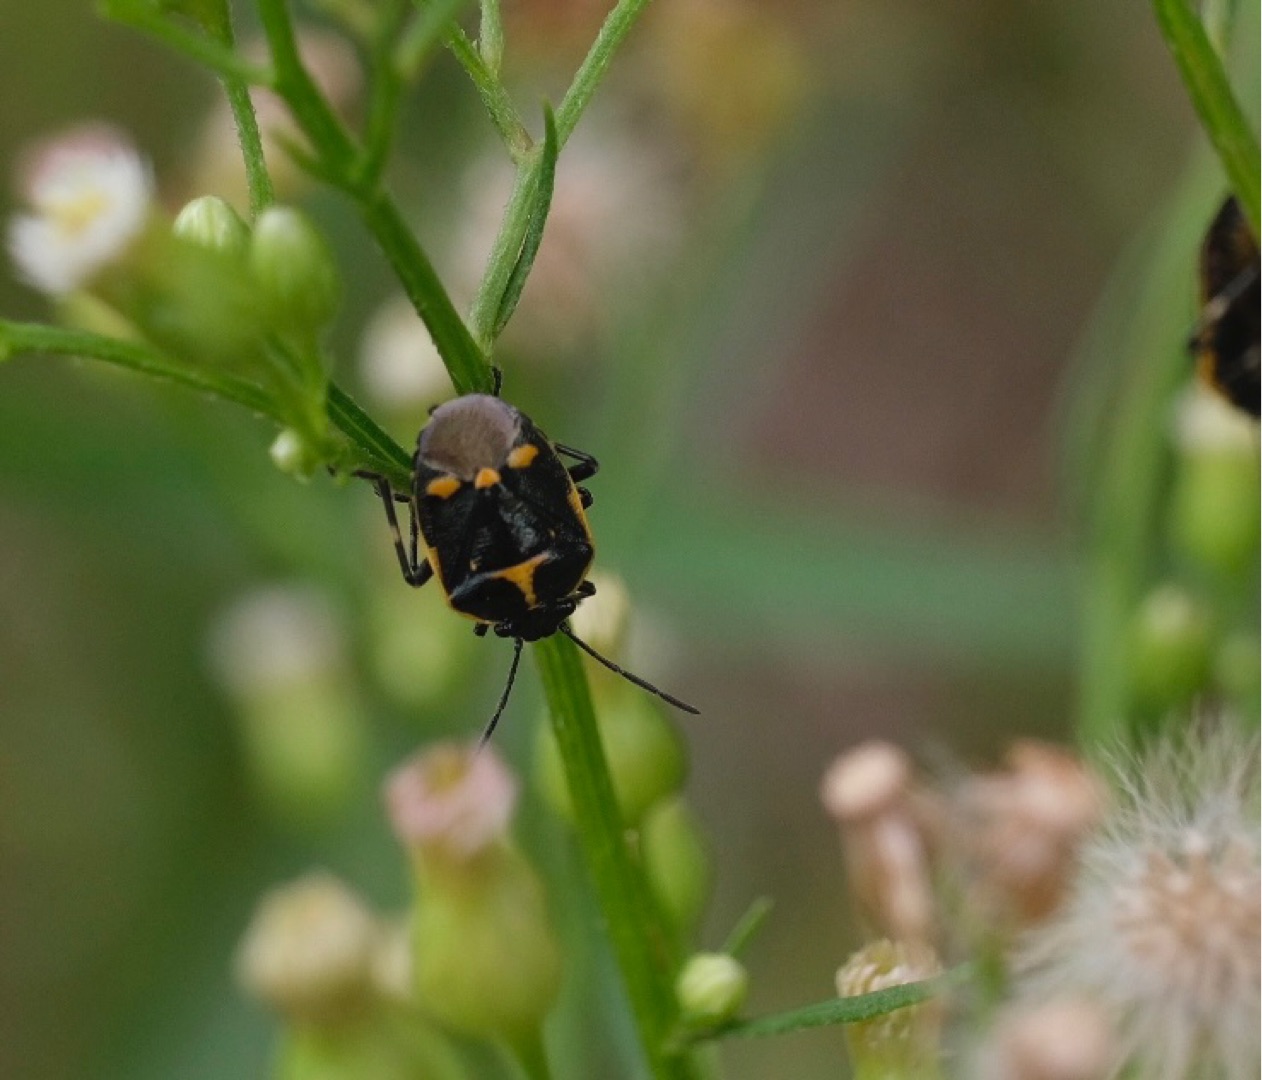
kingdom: Animalia
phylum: Arthropoda
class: Insecta
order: Hemiptera
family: Pentatomidae
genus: Eurydema
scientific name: Eurydema oleracea
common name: Almindelig kåltæge
